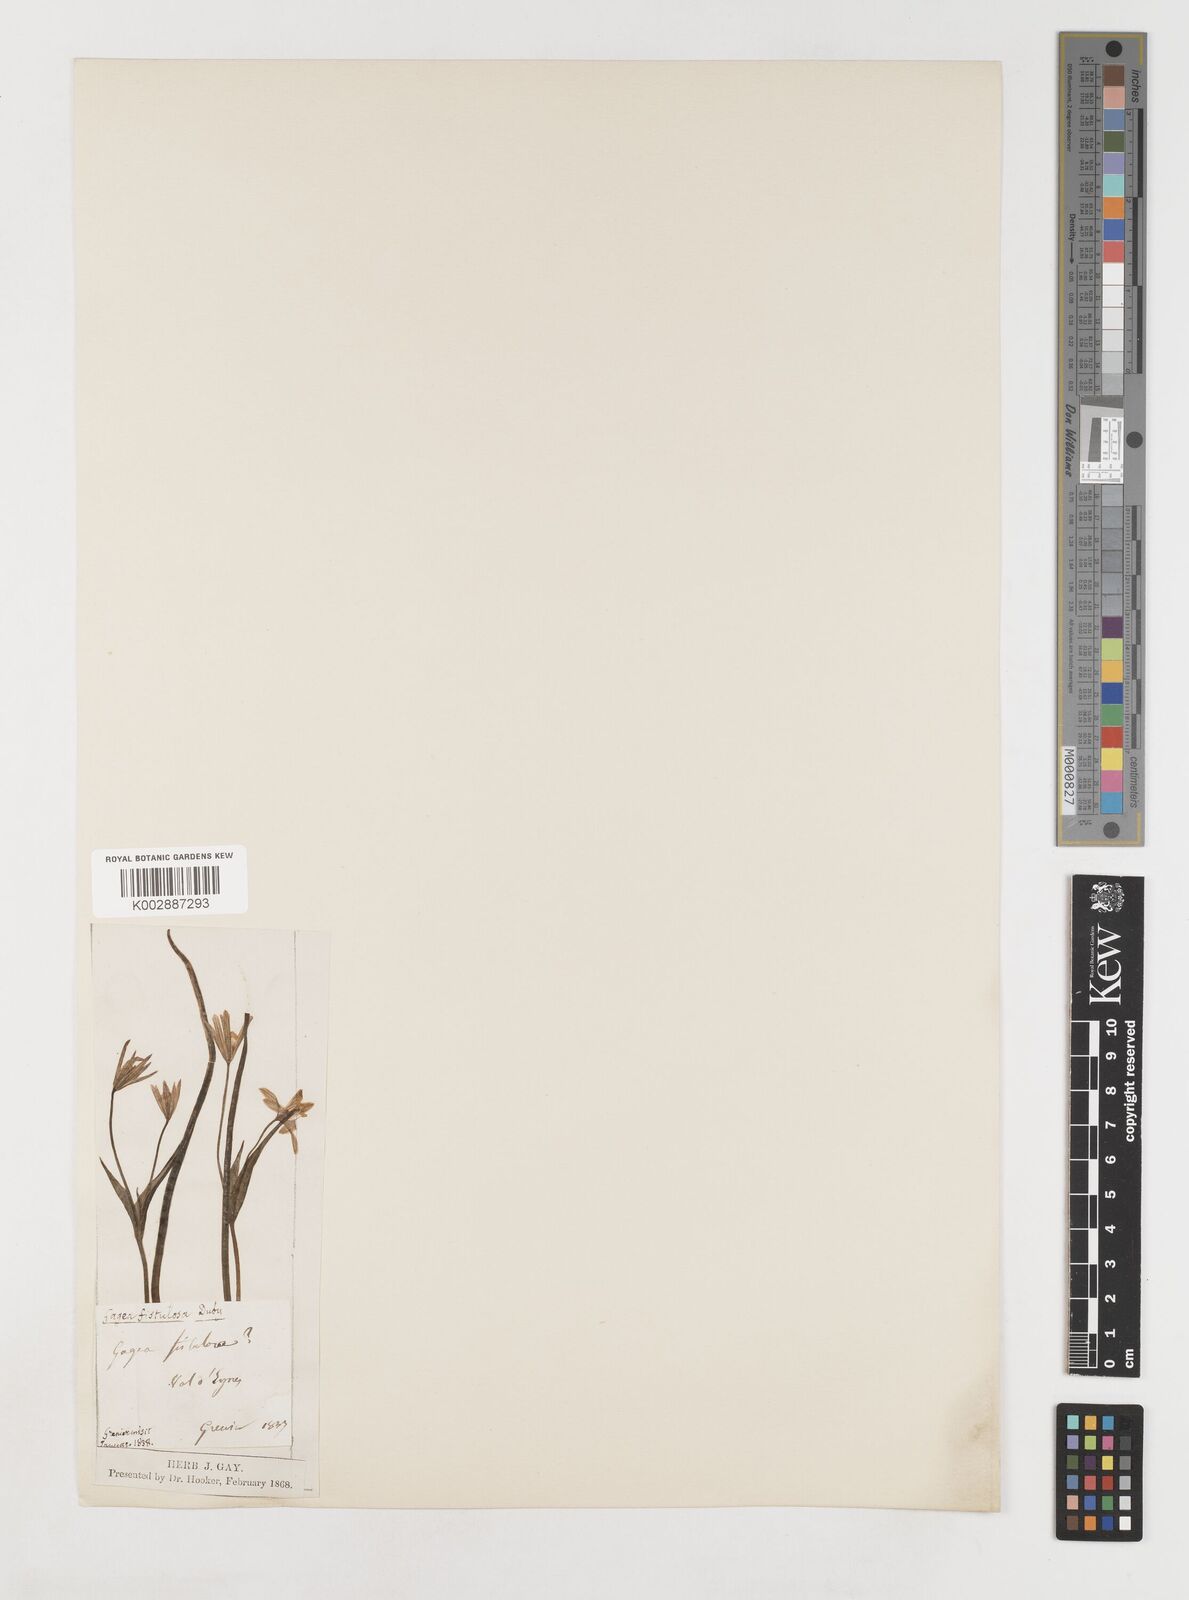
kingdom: Plantae
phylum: Tracheophyta
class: Liliopsida
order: Liliales
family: Liliaceae
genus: Gagea
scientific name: Gagea bohemica
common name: Early star-of-bethlehem
